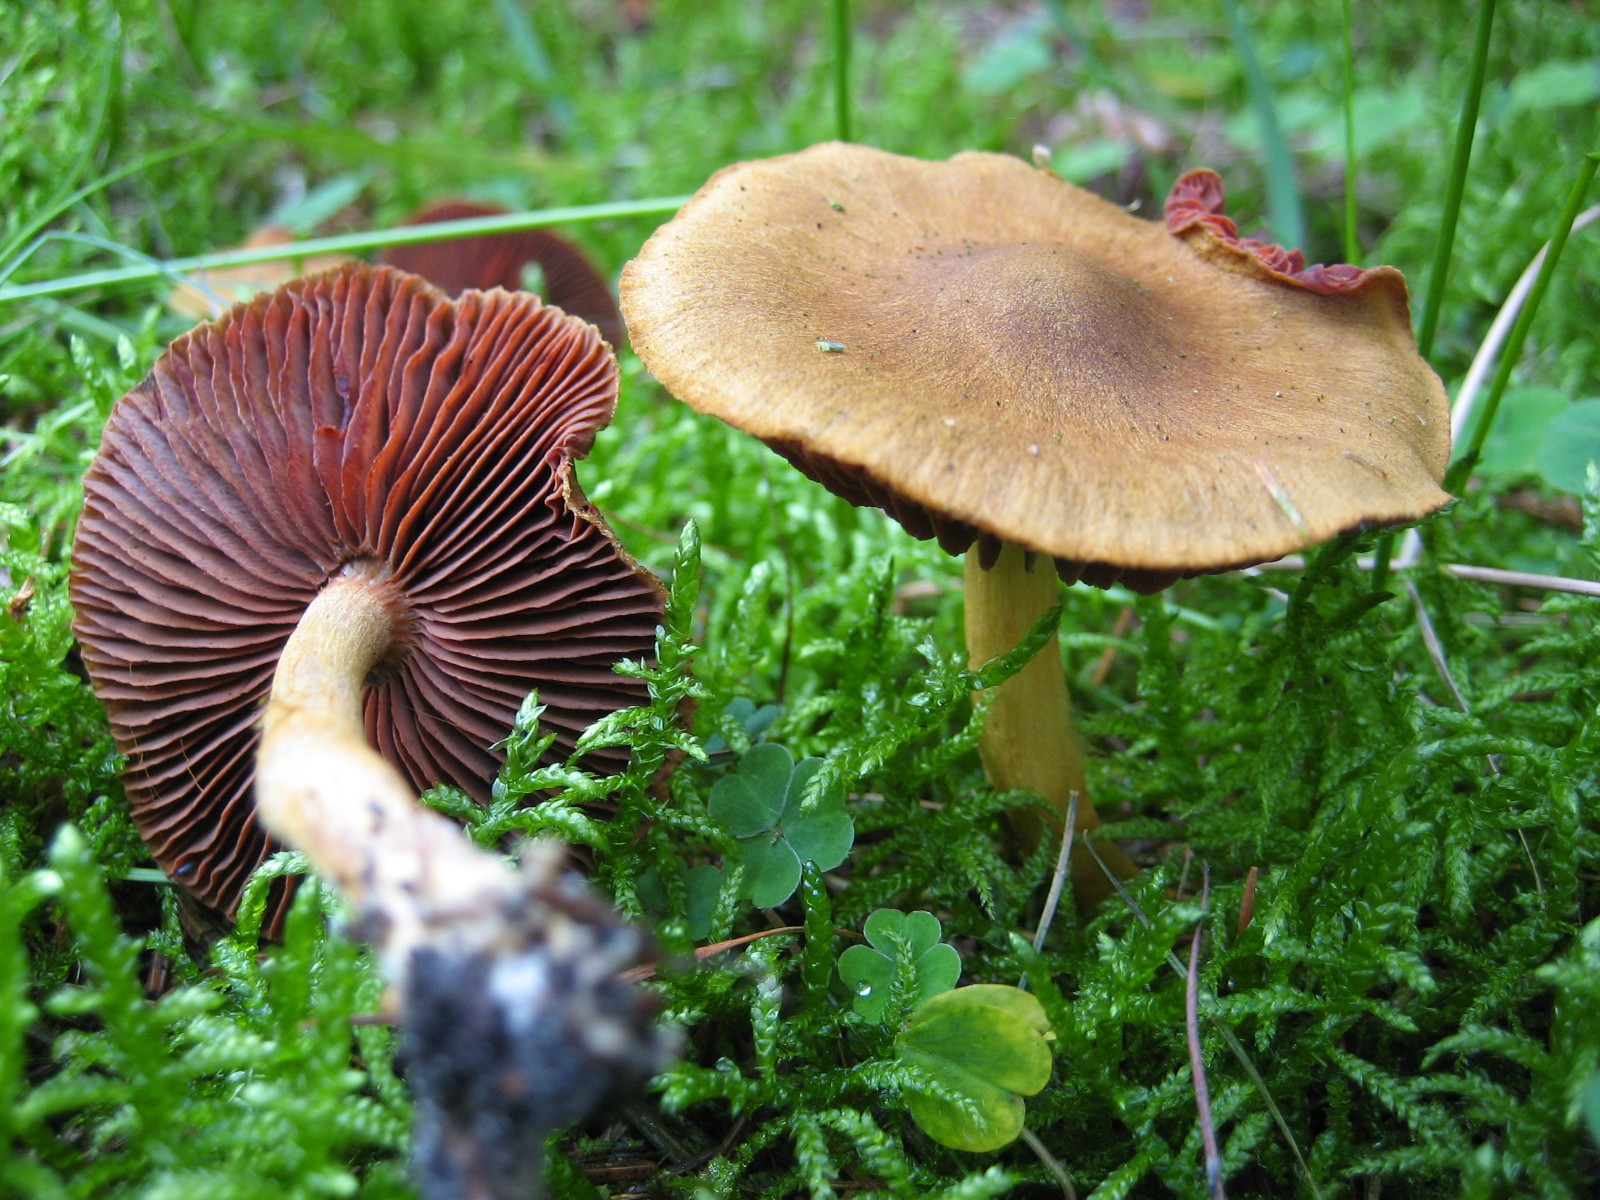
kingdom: Fungi
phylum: Basidiomycota
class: Agaricomycetes
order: Agaricales
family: Cortinariaceae
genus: Cortinarius
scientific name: Cortinarius
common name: cinnoberbladet slørhat
